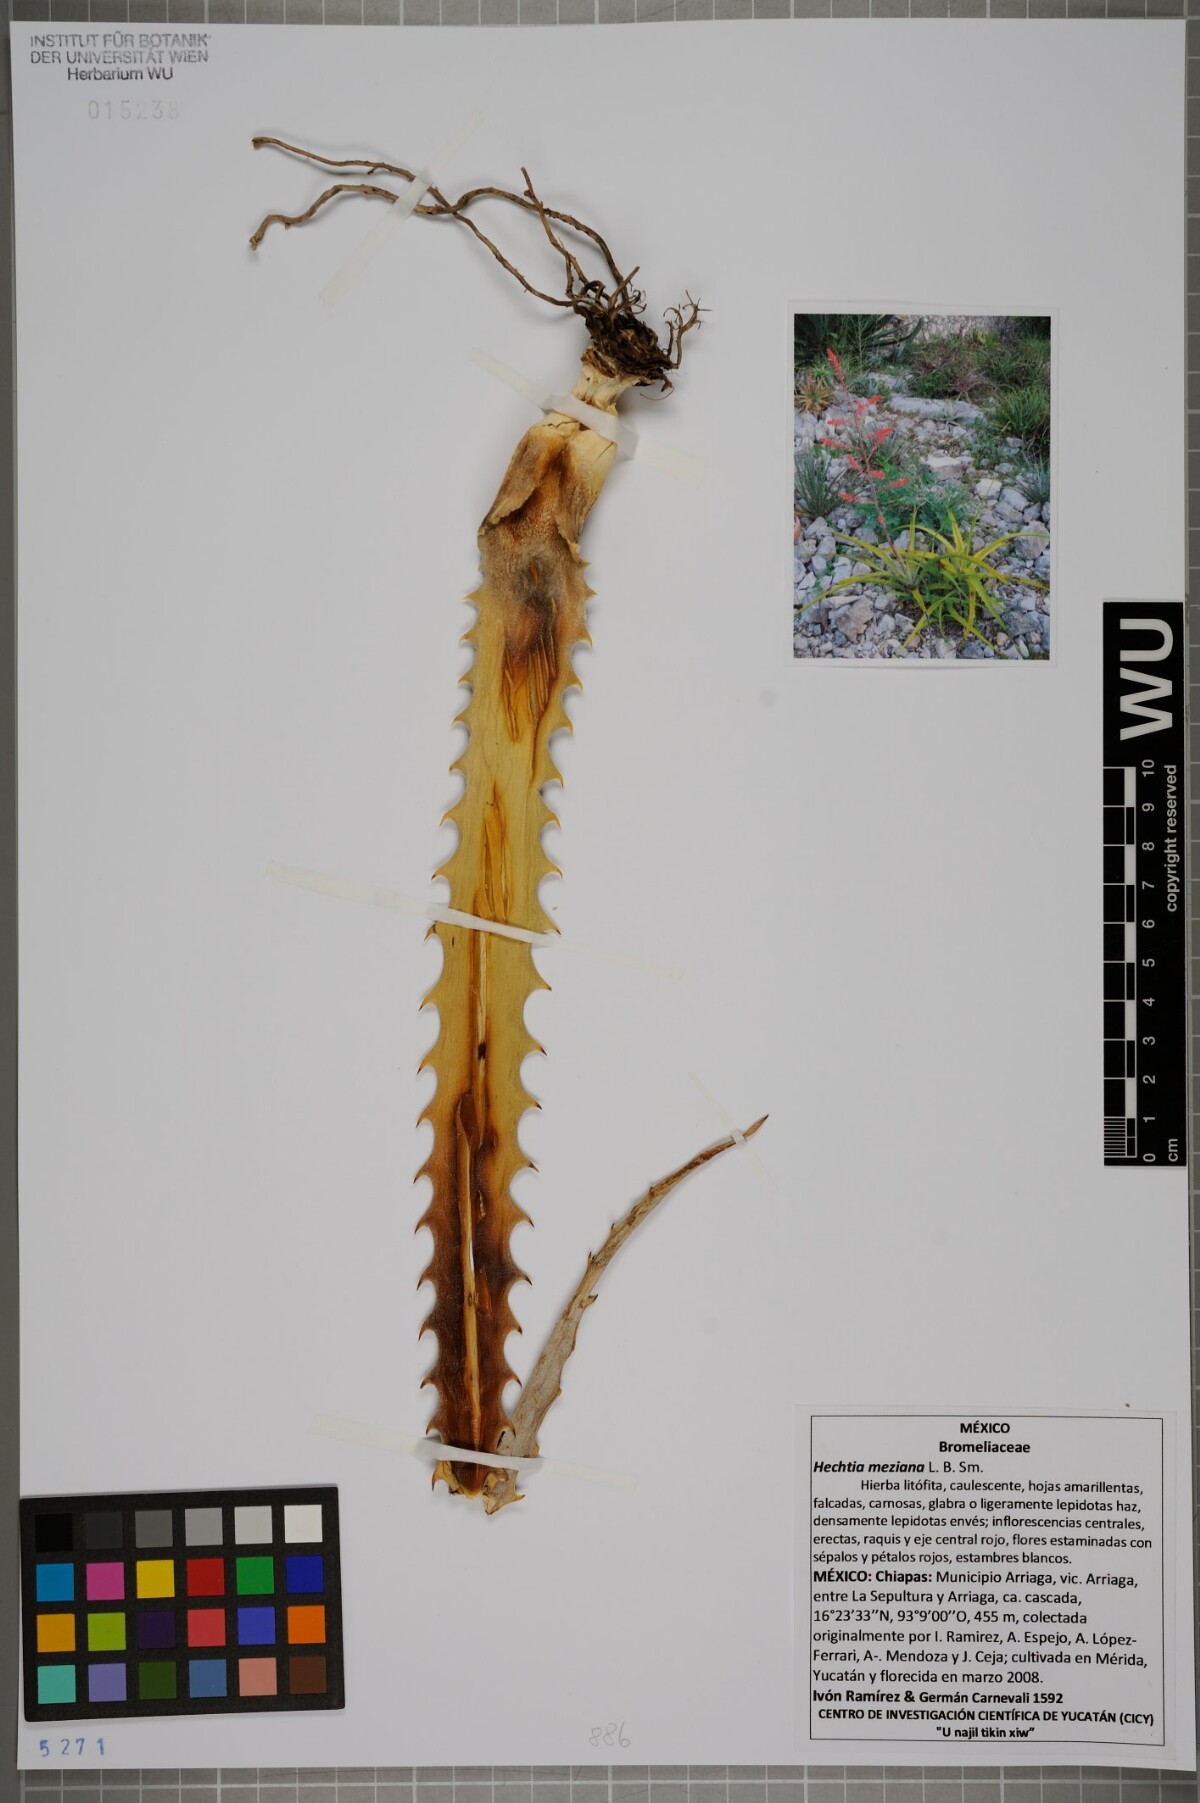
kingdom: Plantae
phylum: Tracheophyta
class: Liliopsida
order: Poales
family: Bromeliaceae
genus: Hechtia
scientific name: Hechtia rosea
